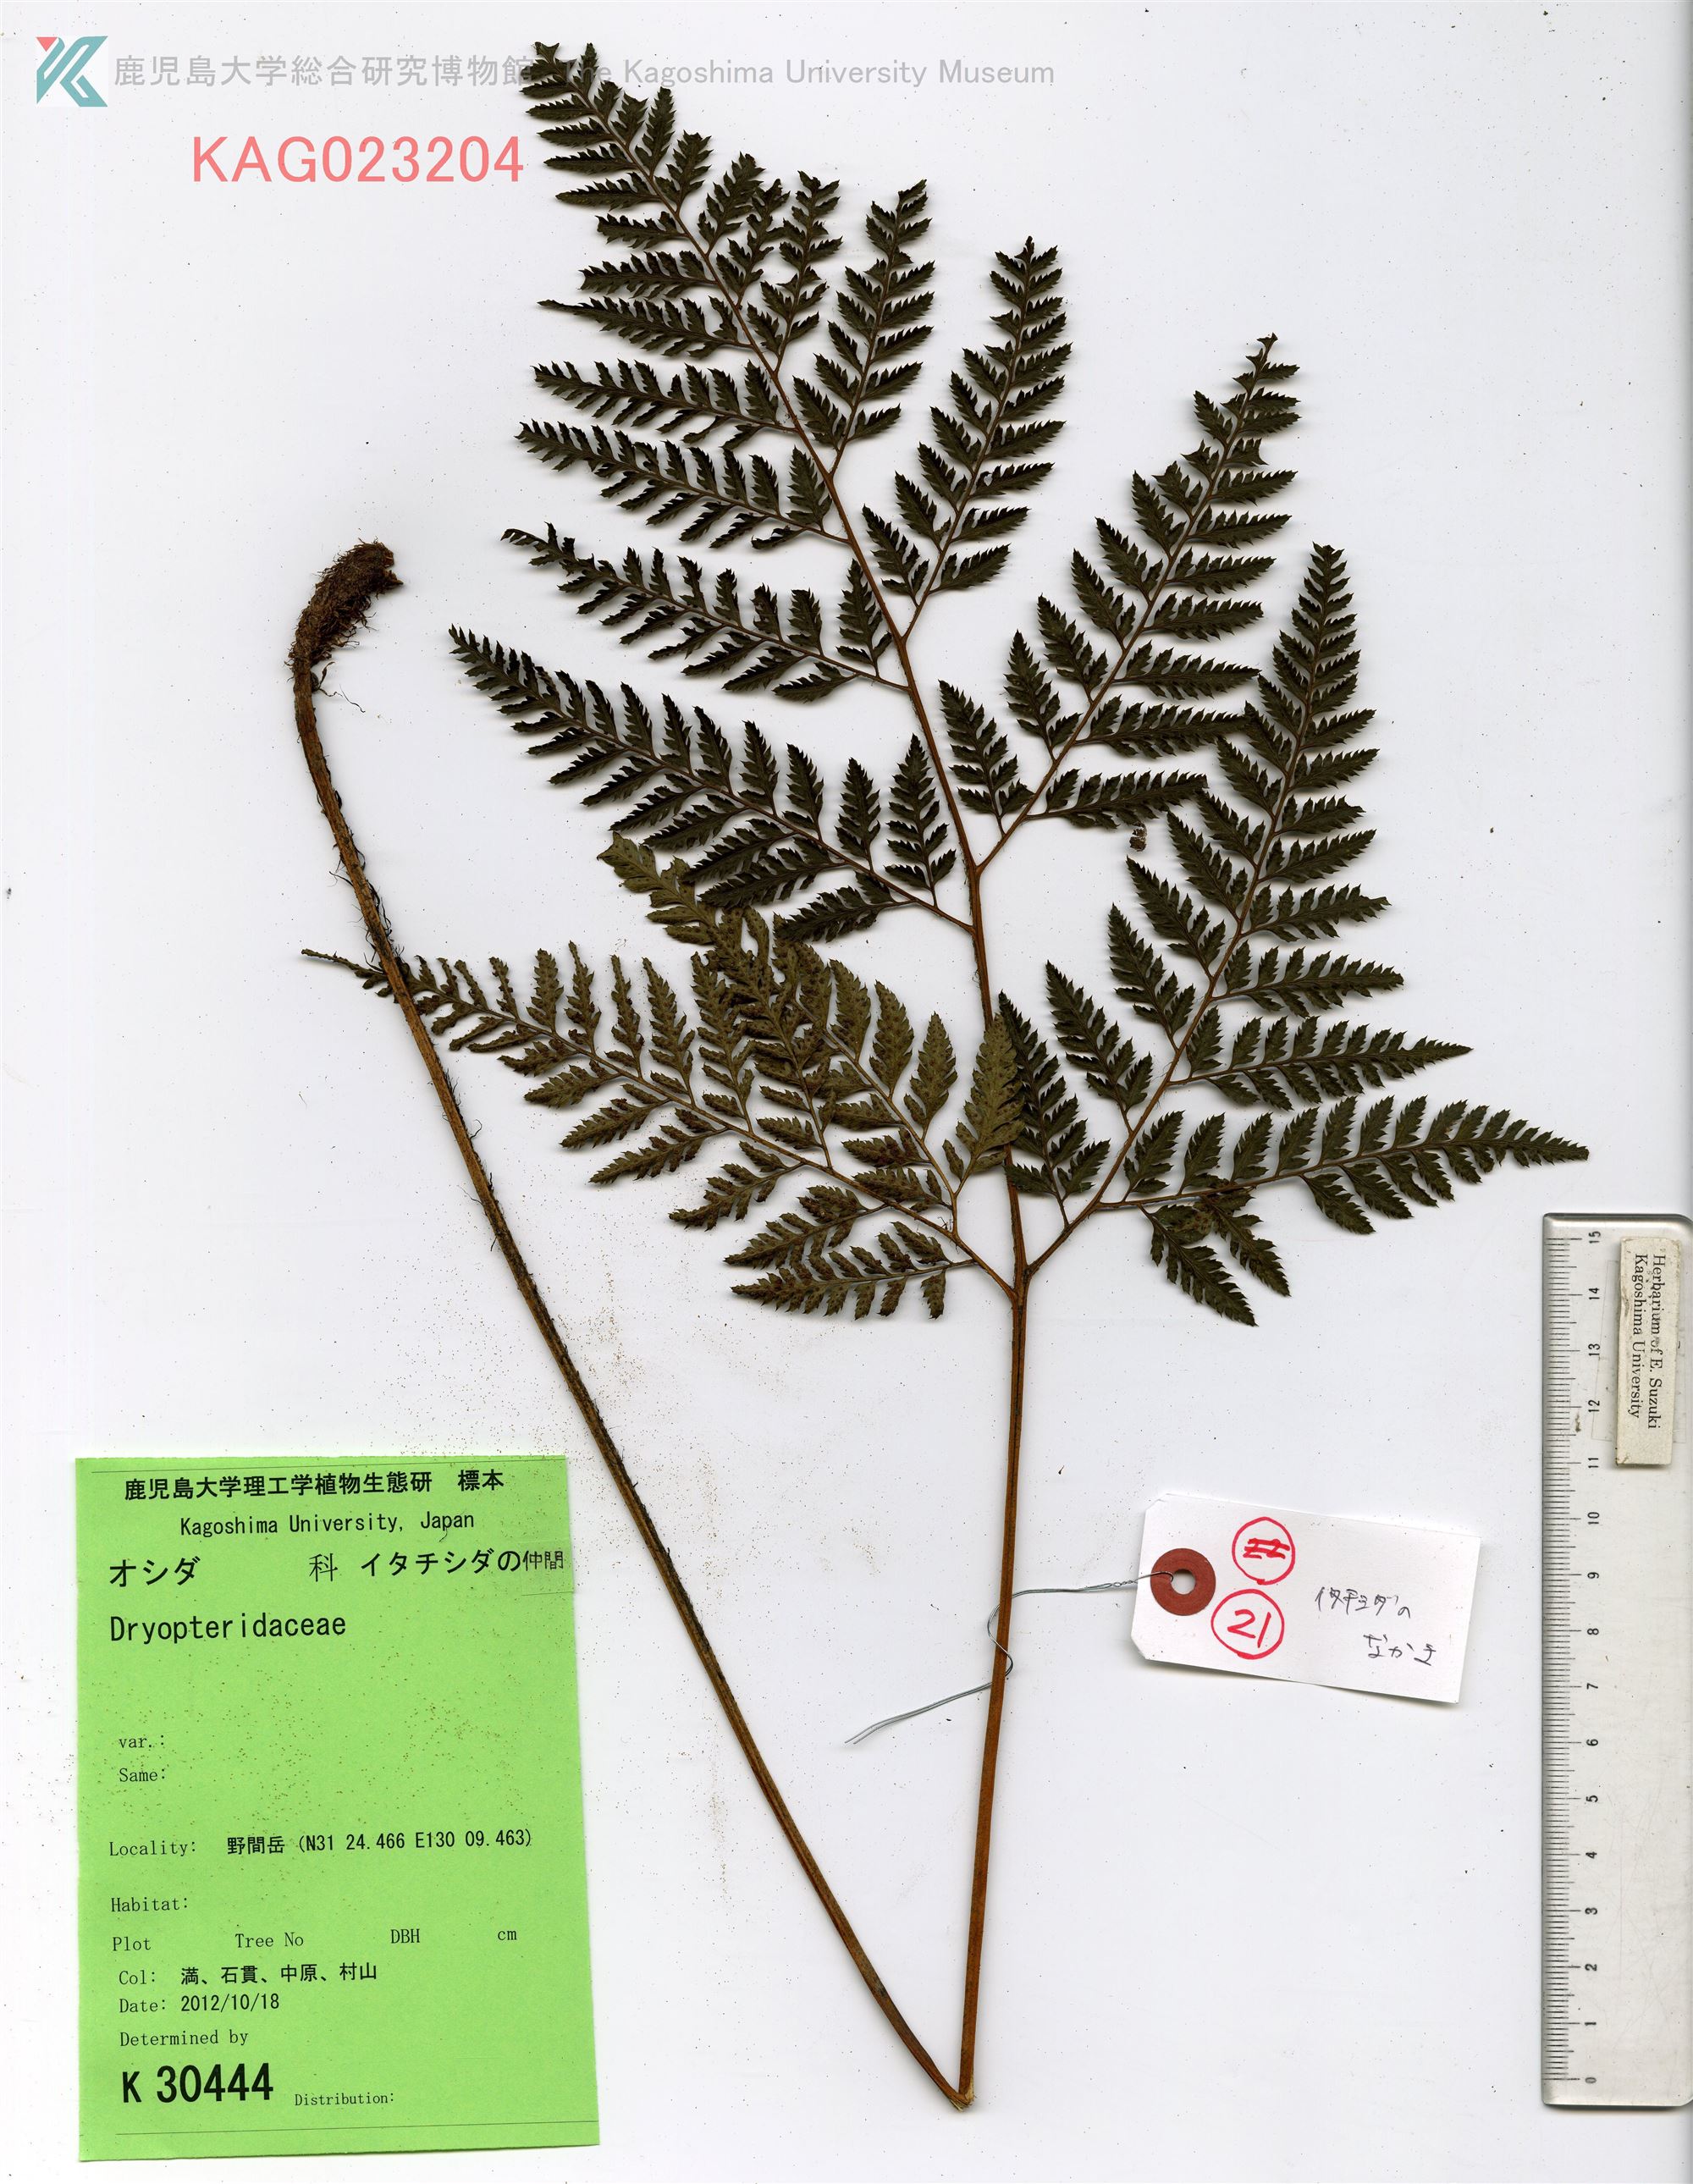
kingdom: Plantae
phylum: Tracheophyta
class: Polypodiopsida
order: Polypodiales
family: Dryopteridaceae
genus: Arachniodes
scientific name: Arachniodes cornu-cervi
